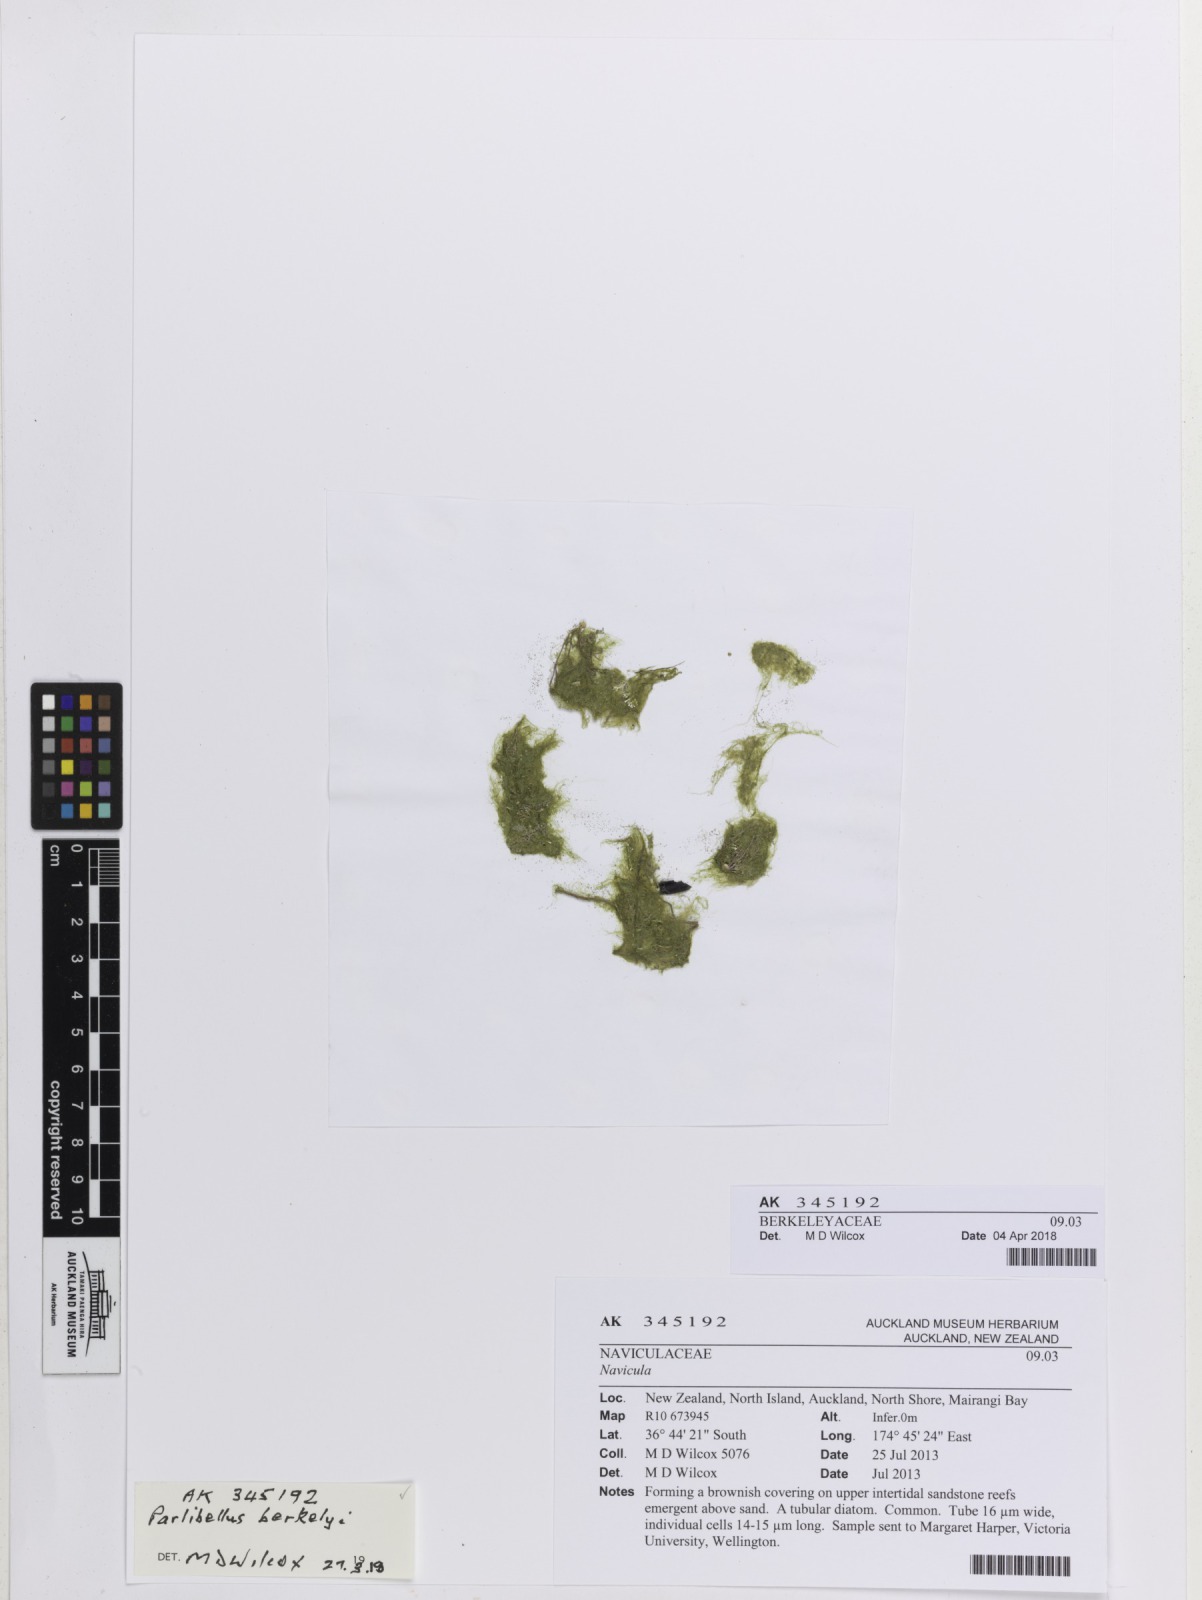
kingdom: Chromista
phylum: Ochrophyta
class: Bacillariophyceae
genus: Micromega
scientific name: Micromega berkeleyi
